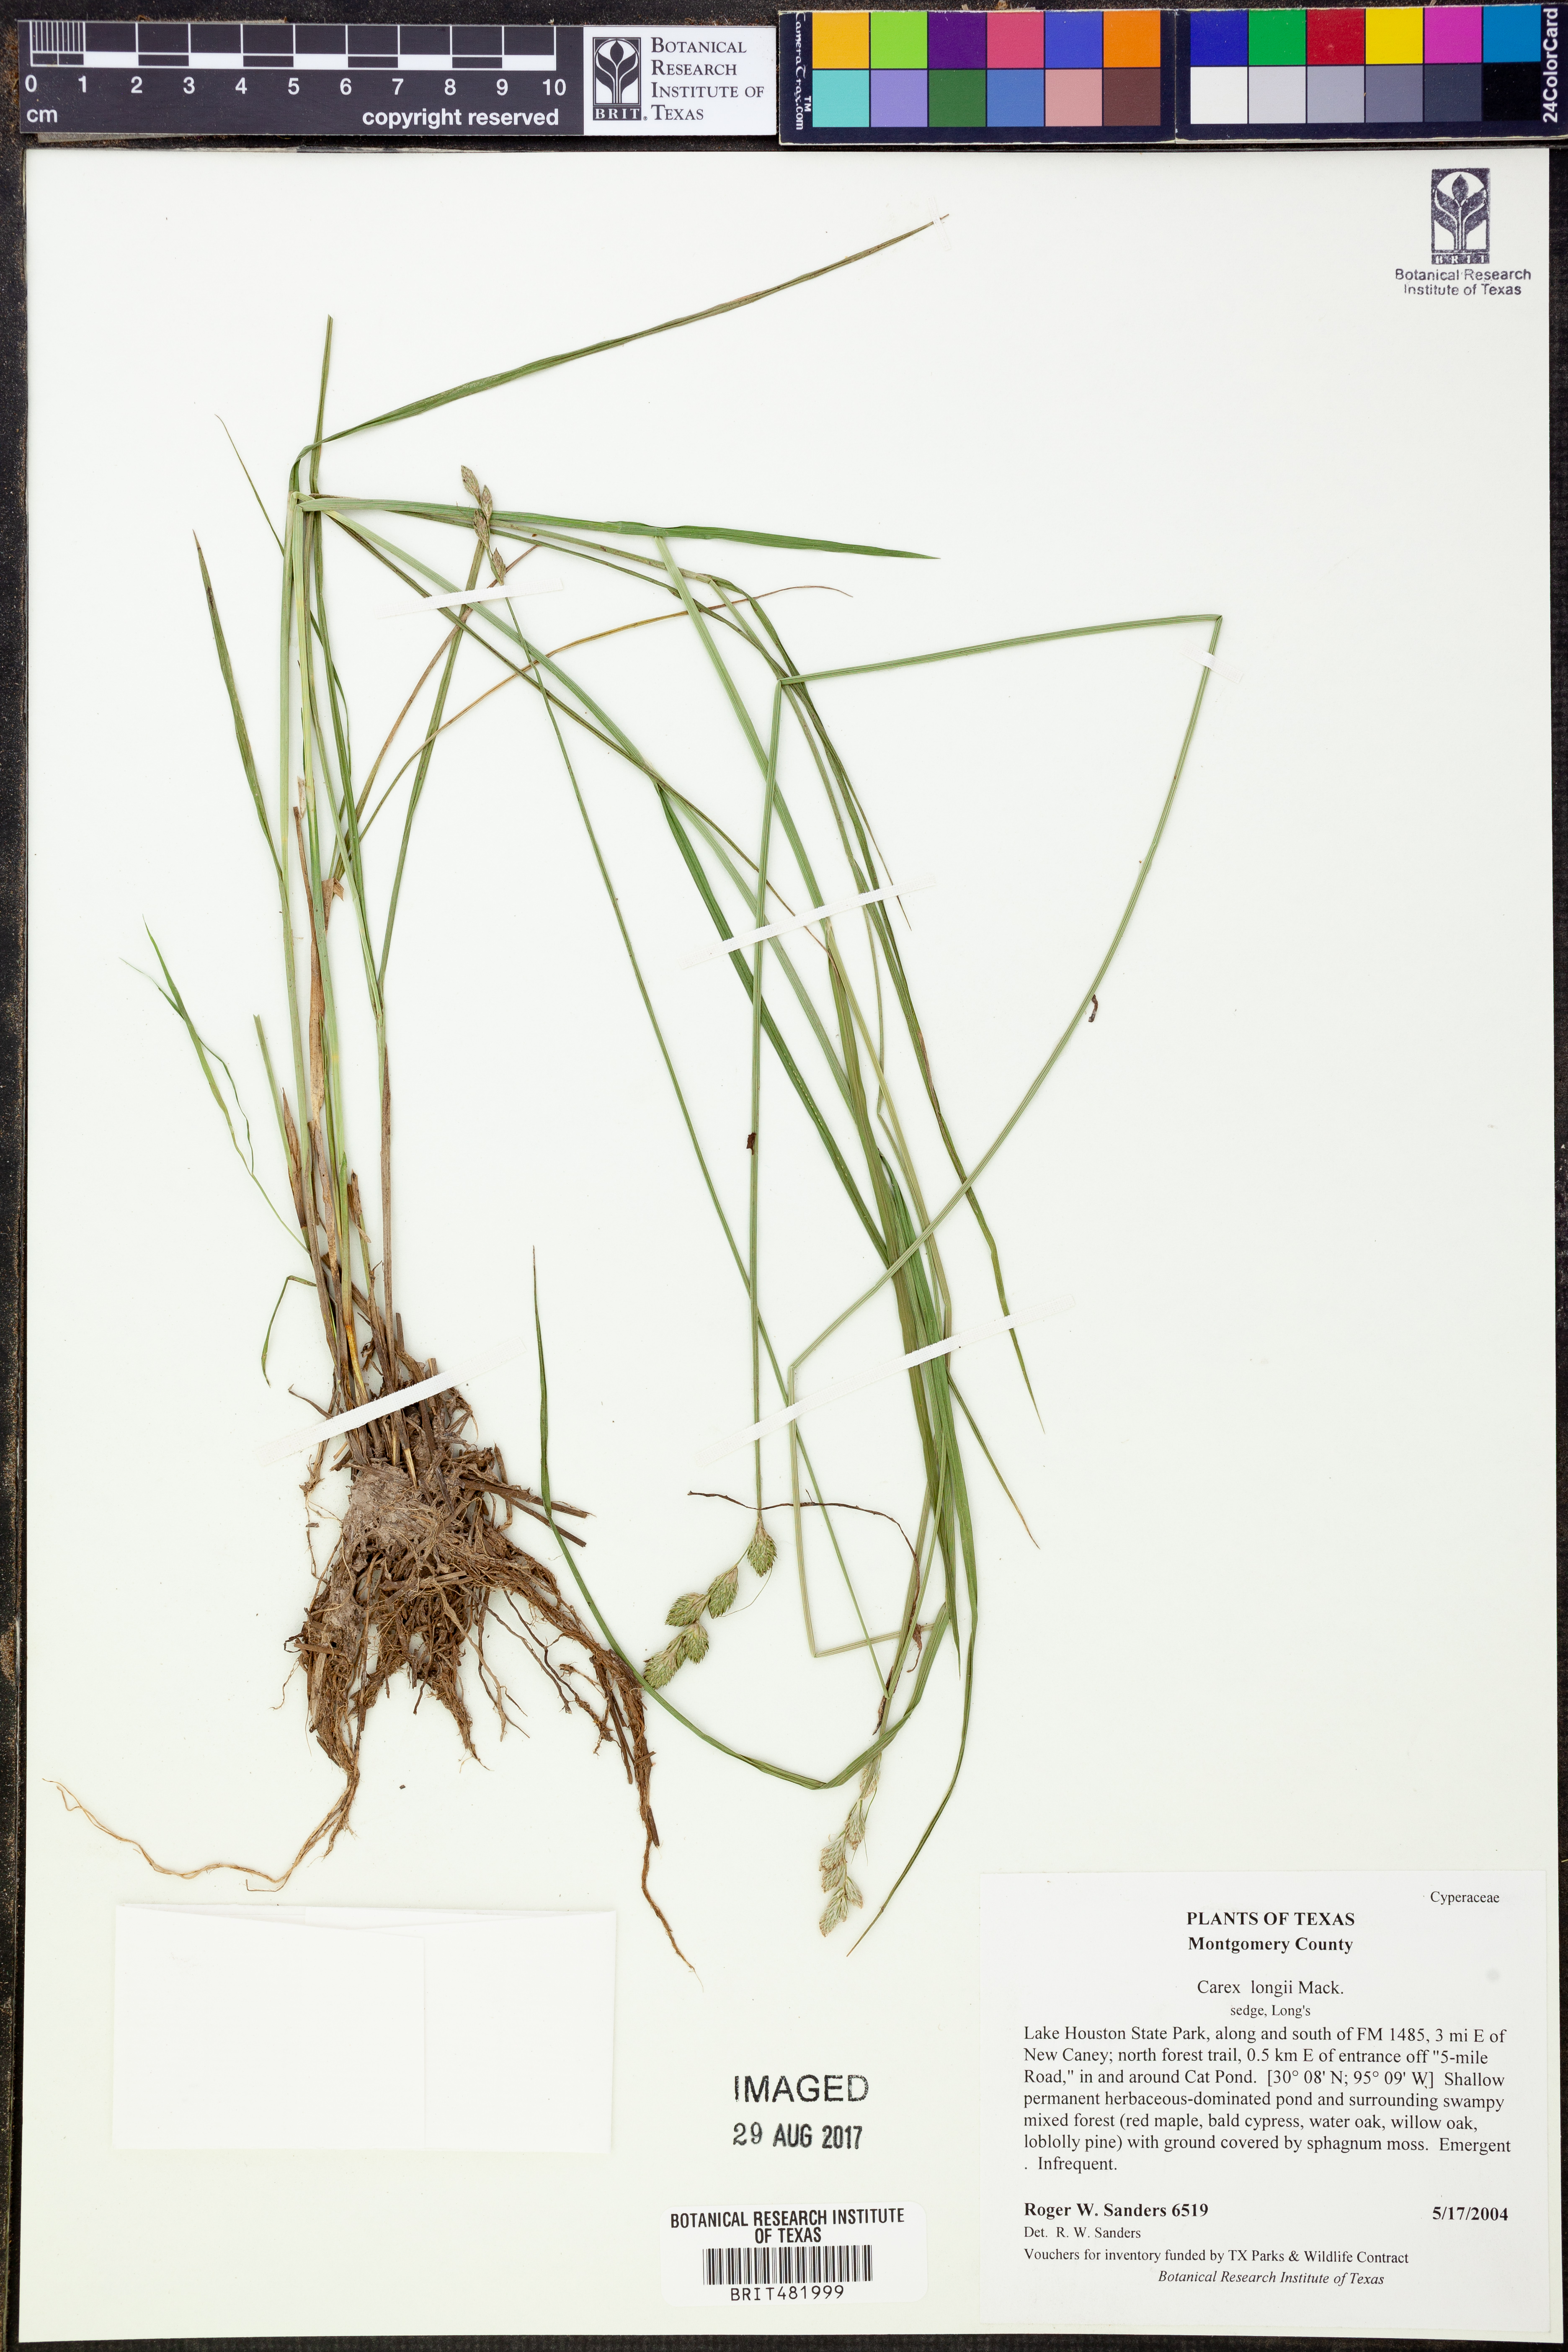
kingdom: Plantae
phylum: Tracheophyta
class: Liliopsida
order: Poales
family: Cyperaceae
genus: Carex
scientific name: Carex longii
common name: Long's sedge
